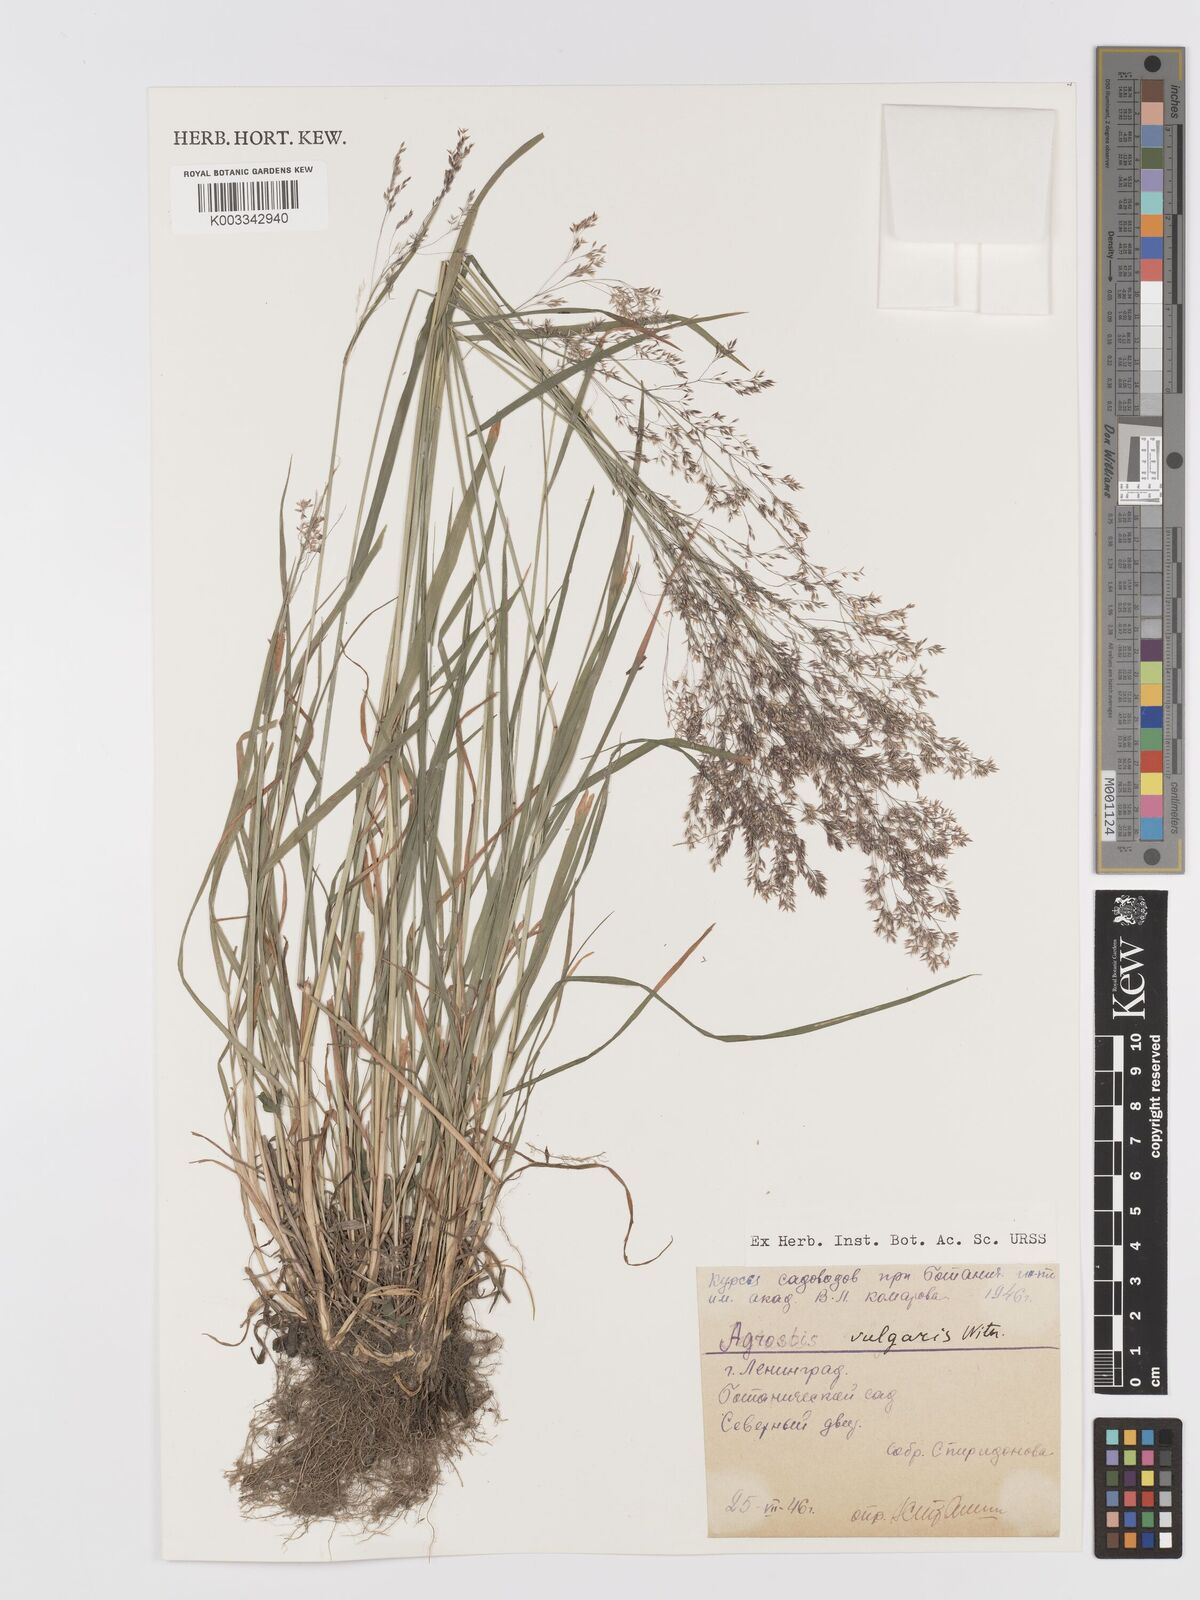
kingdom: Plantae
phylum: Tracheophyta
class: Liliopsida
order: Poales
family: Poaceae
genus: Agrostis
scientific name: Agrostis capillaris
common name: Colonial bentgrass
